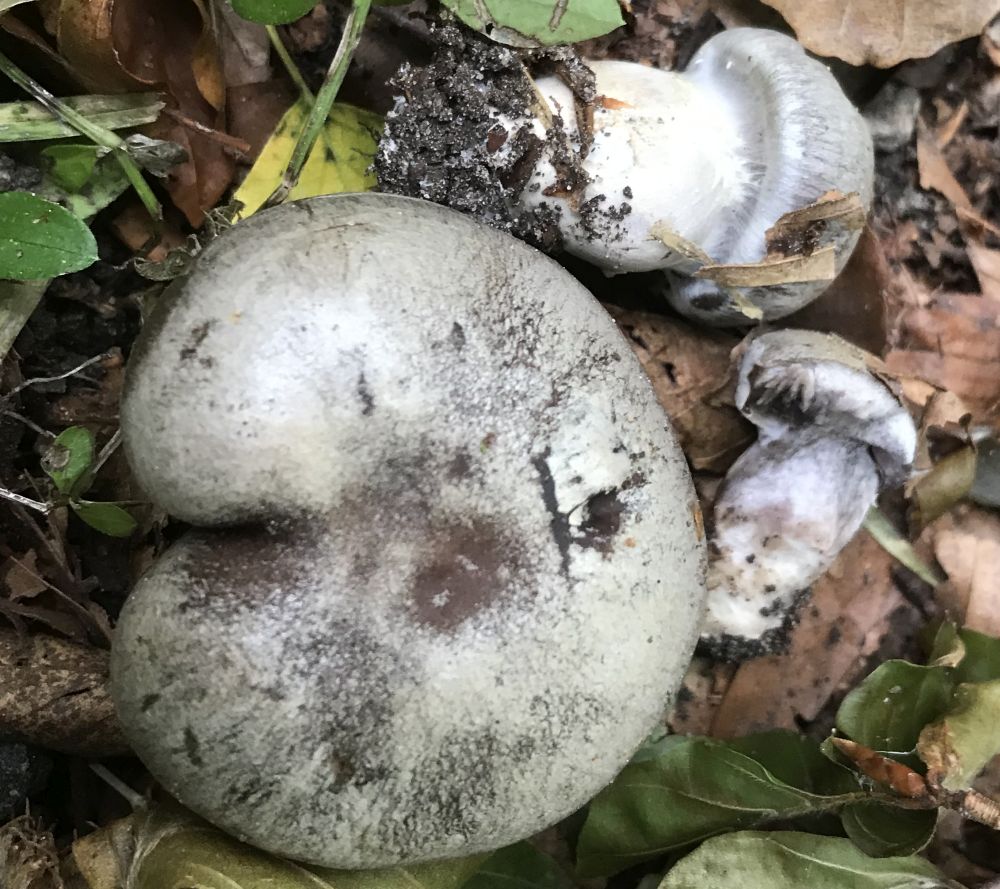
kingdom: Fungi
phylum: Basidiomycota
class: Agaricomycetes
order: Agaricales
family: Cortinariaceae
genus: Cortinarius
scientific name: Cortinarius
